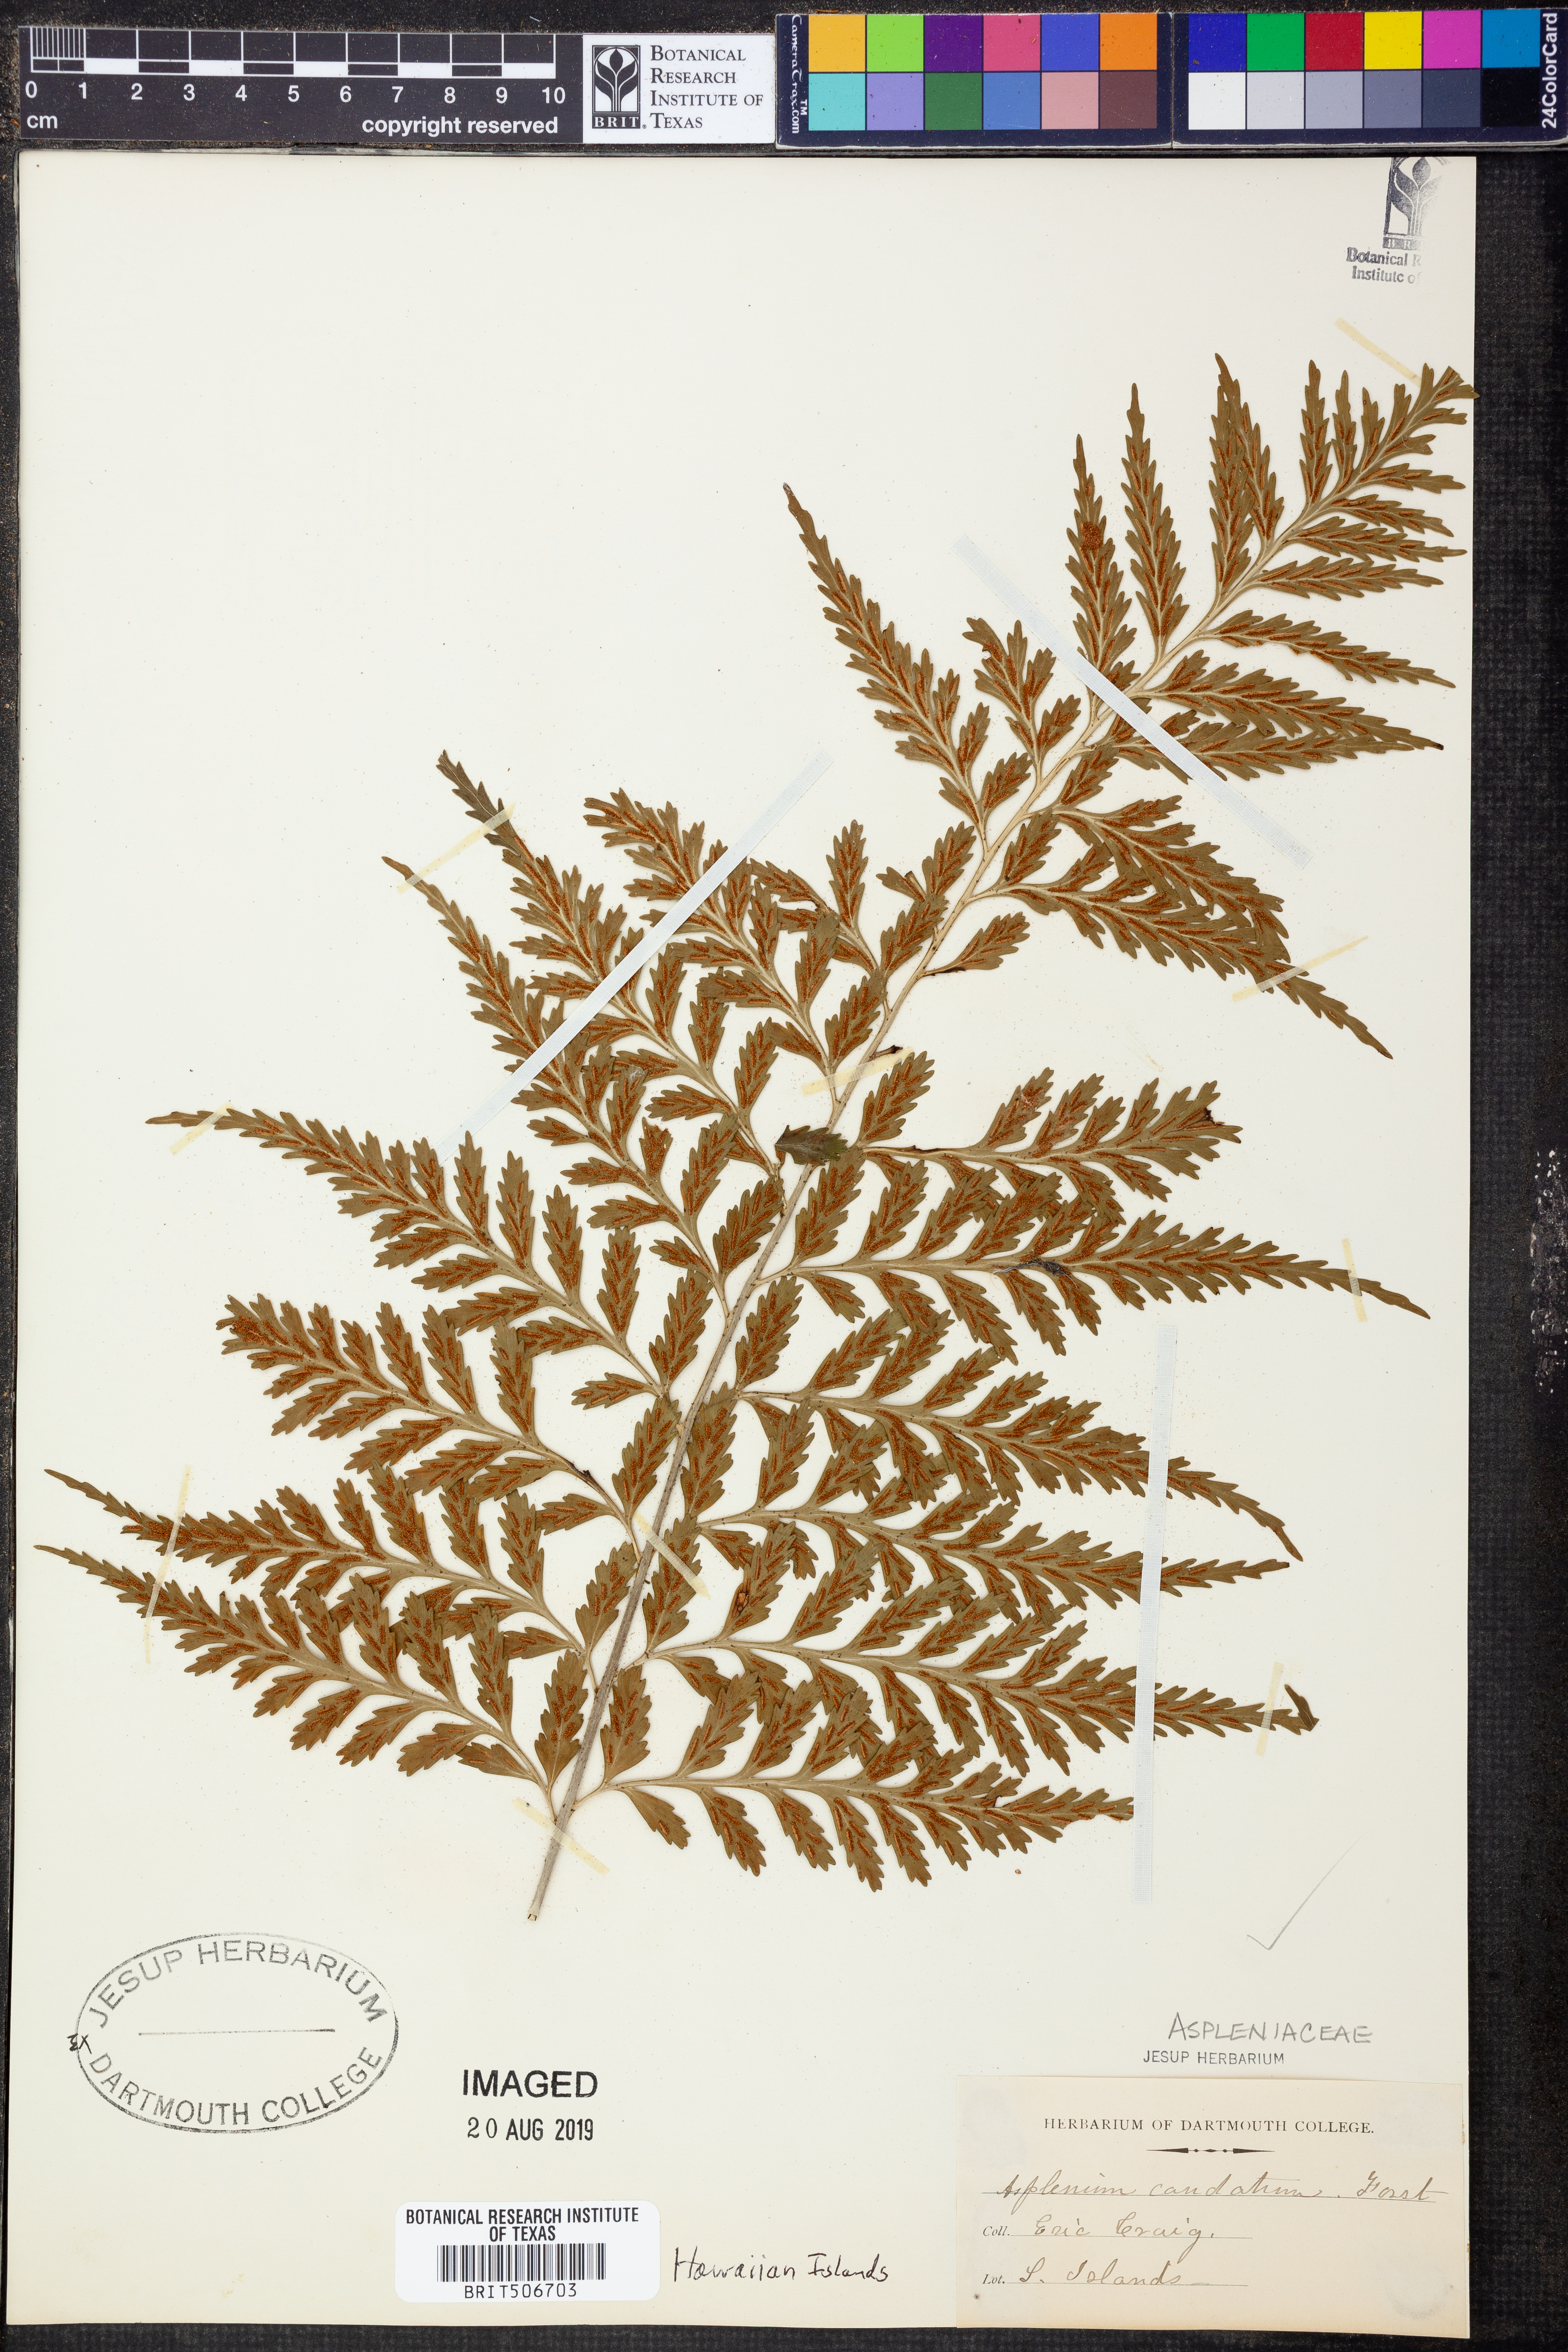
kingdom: Plantae
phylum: Tracheophyta
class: Polypodiopsida
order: Polypodiales
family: Aspleniaceae
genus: Asplenium
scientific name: Asplenium caudatum
